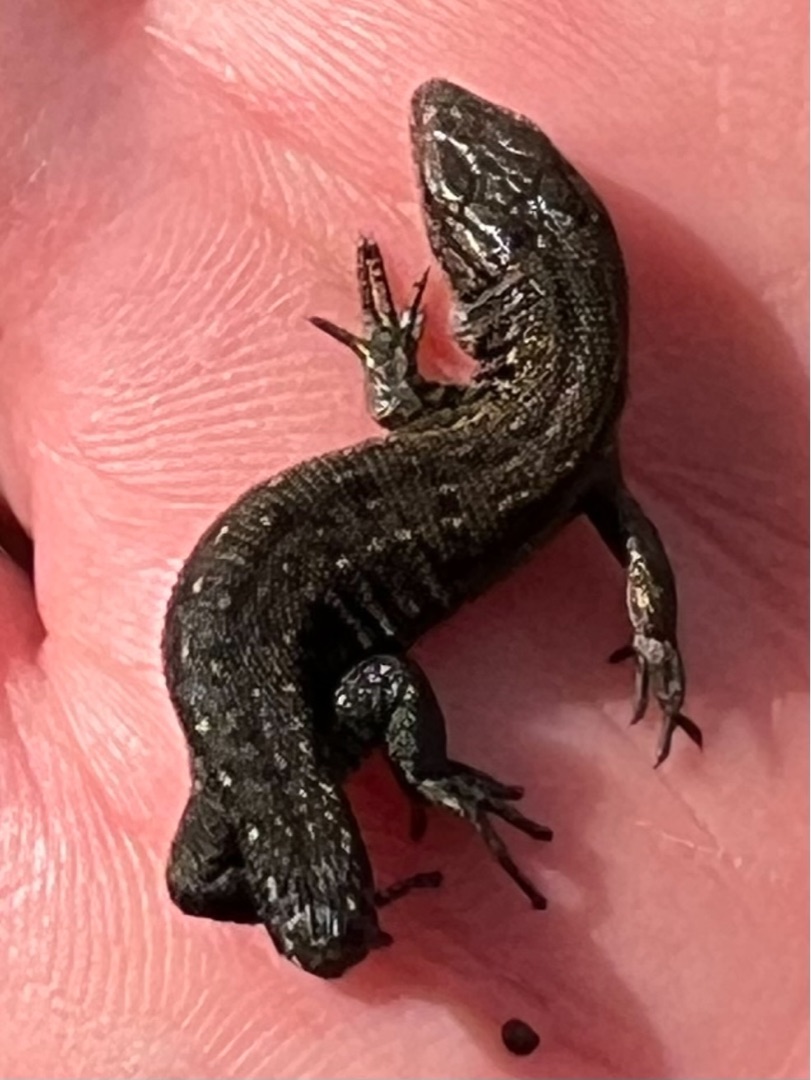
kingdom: Animalia
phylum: Chordata
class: Squamata
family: Lacertidae
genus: Zootoca
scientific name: Zootoca vivipara
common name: Skovfirben
